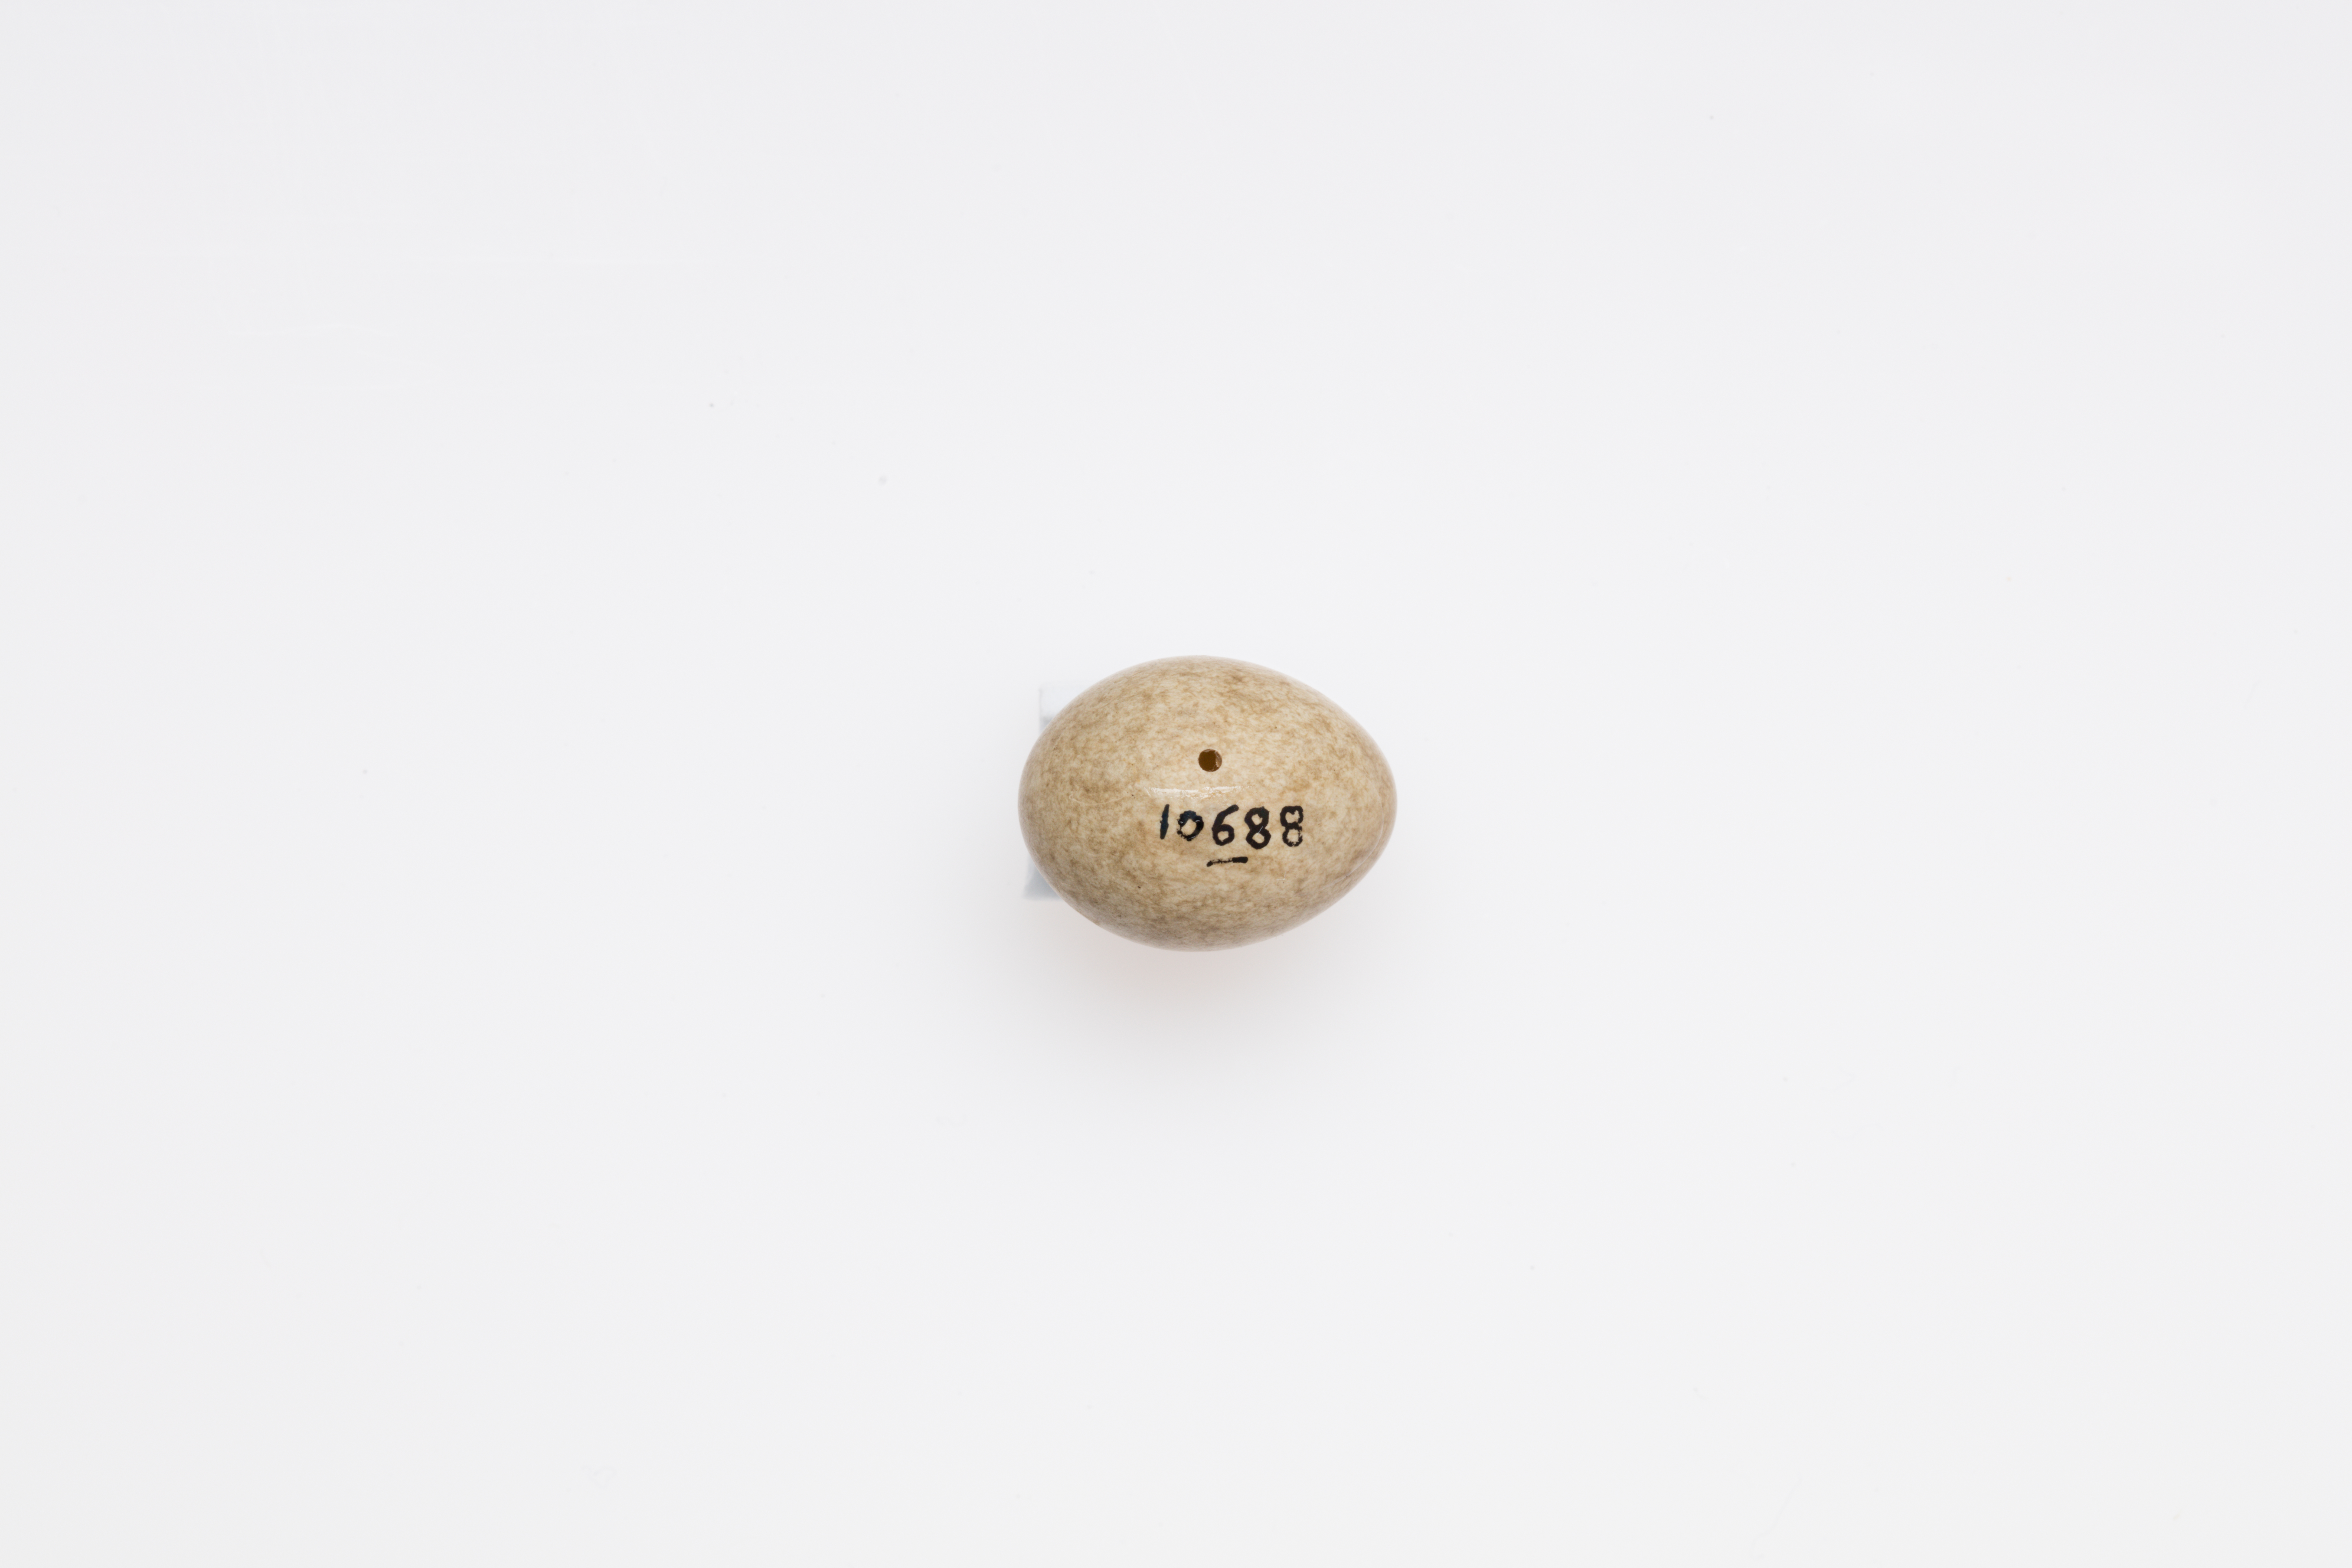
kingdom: Animalia
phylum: Chordata
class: Aves
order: Passeriformes
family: Acrocephalidae
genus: Acrocephalus
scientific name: Acrocephalus schoenobaenus
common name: Sedge warbler
